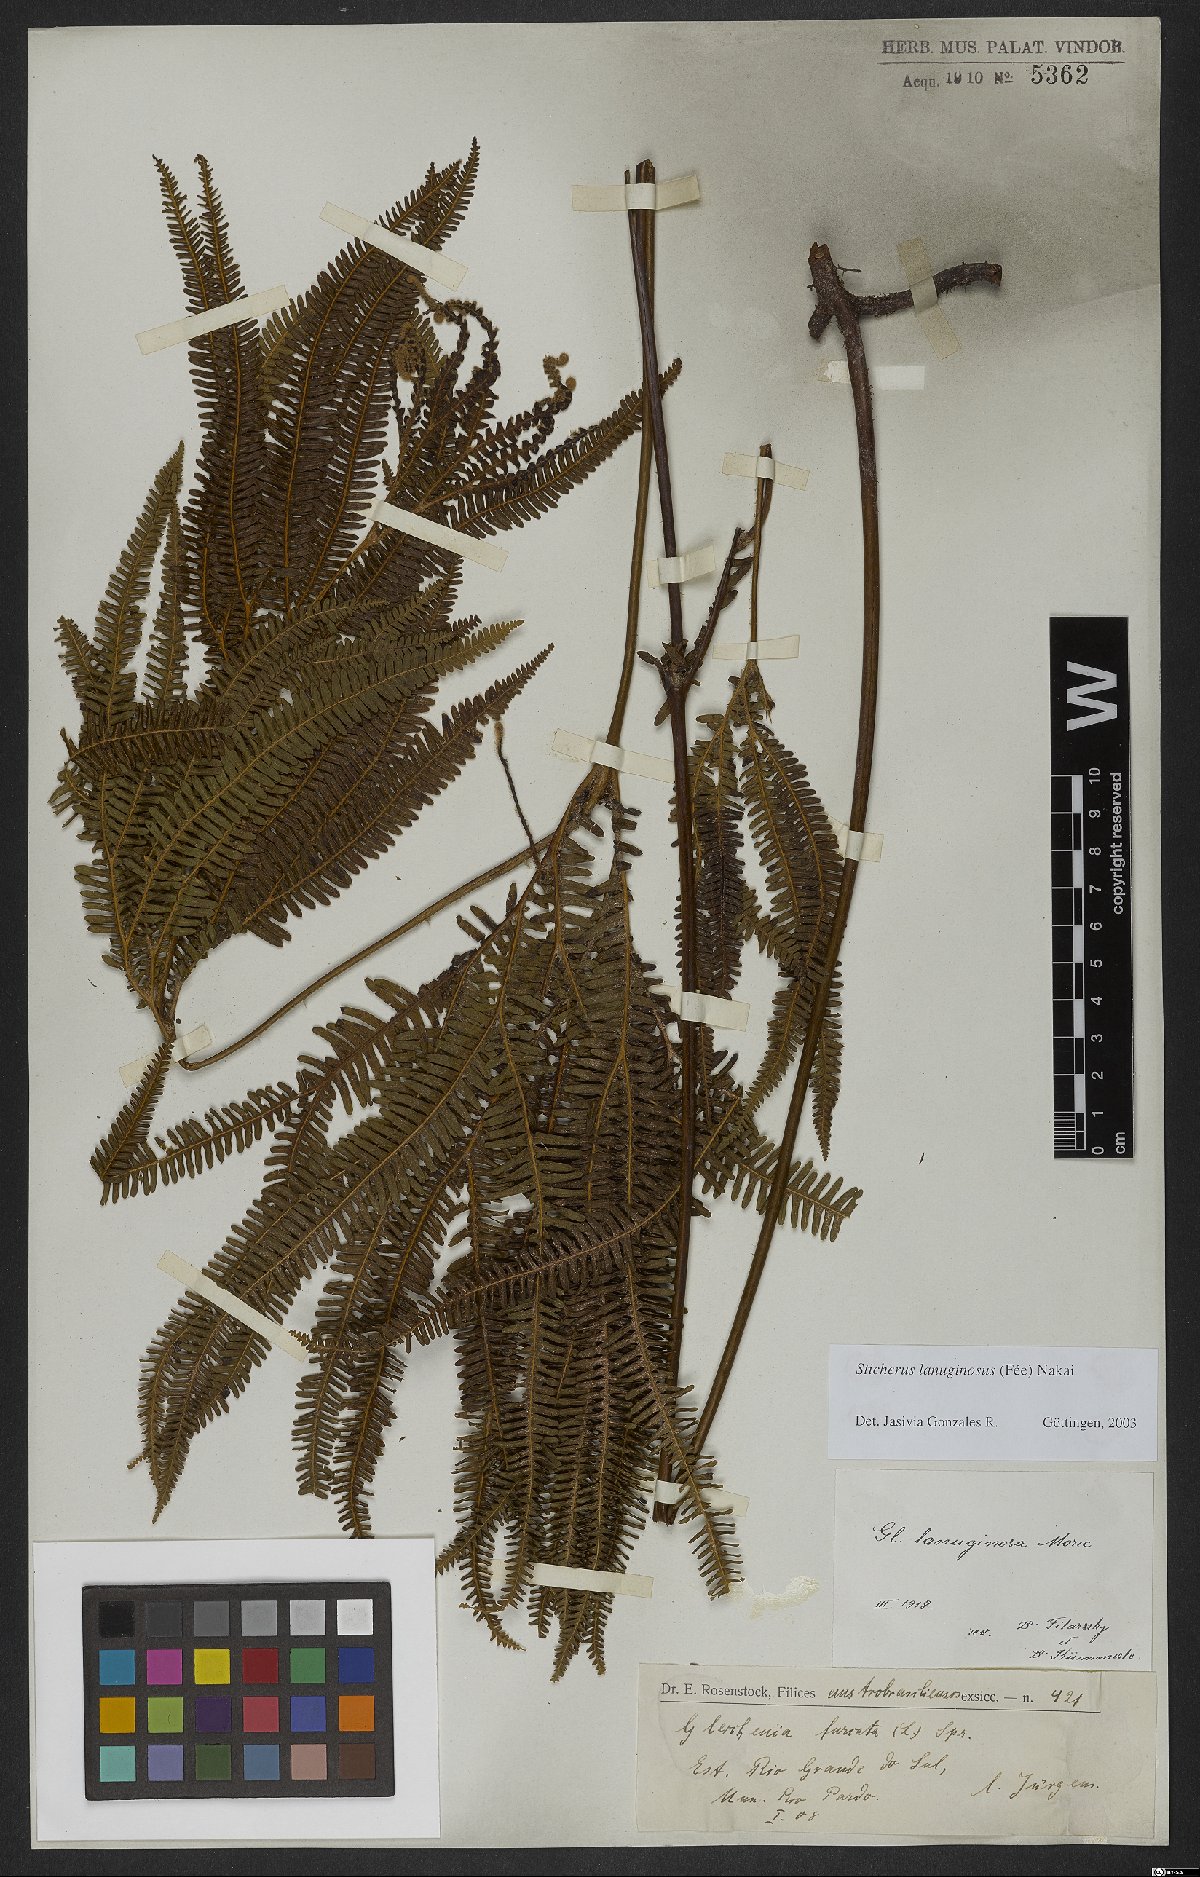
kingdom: Plantae
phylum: Tracheophyta
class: Polypodiopsida
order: Gleicheniales
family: Gleicheniaceae
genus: Sticherus
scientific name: Sticherus lanuginosus
